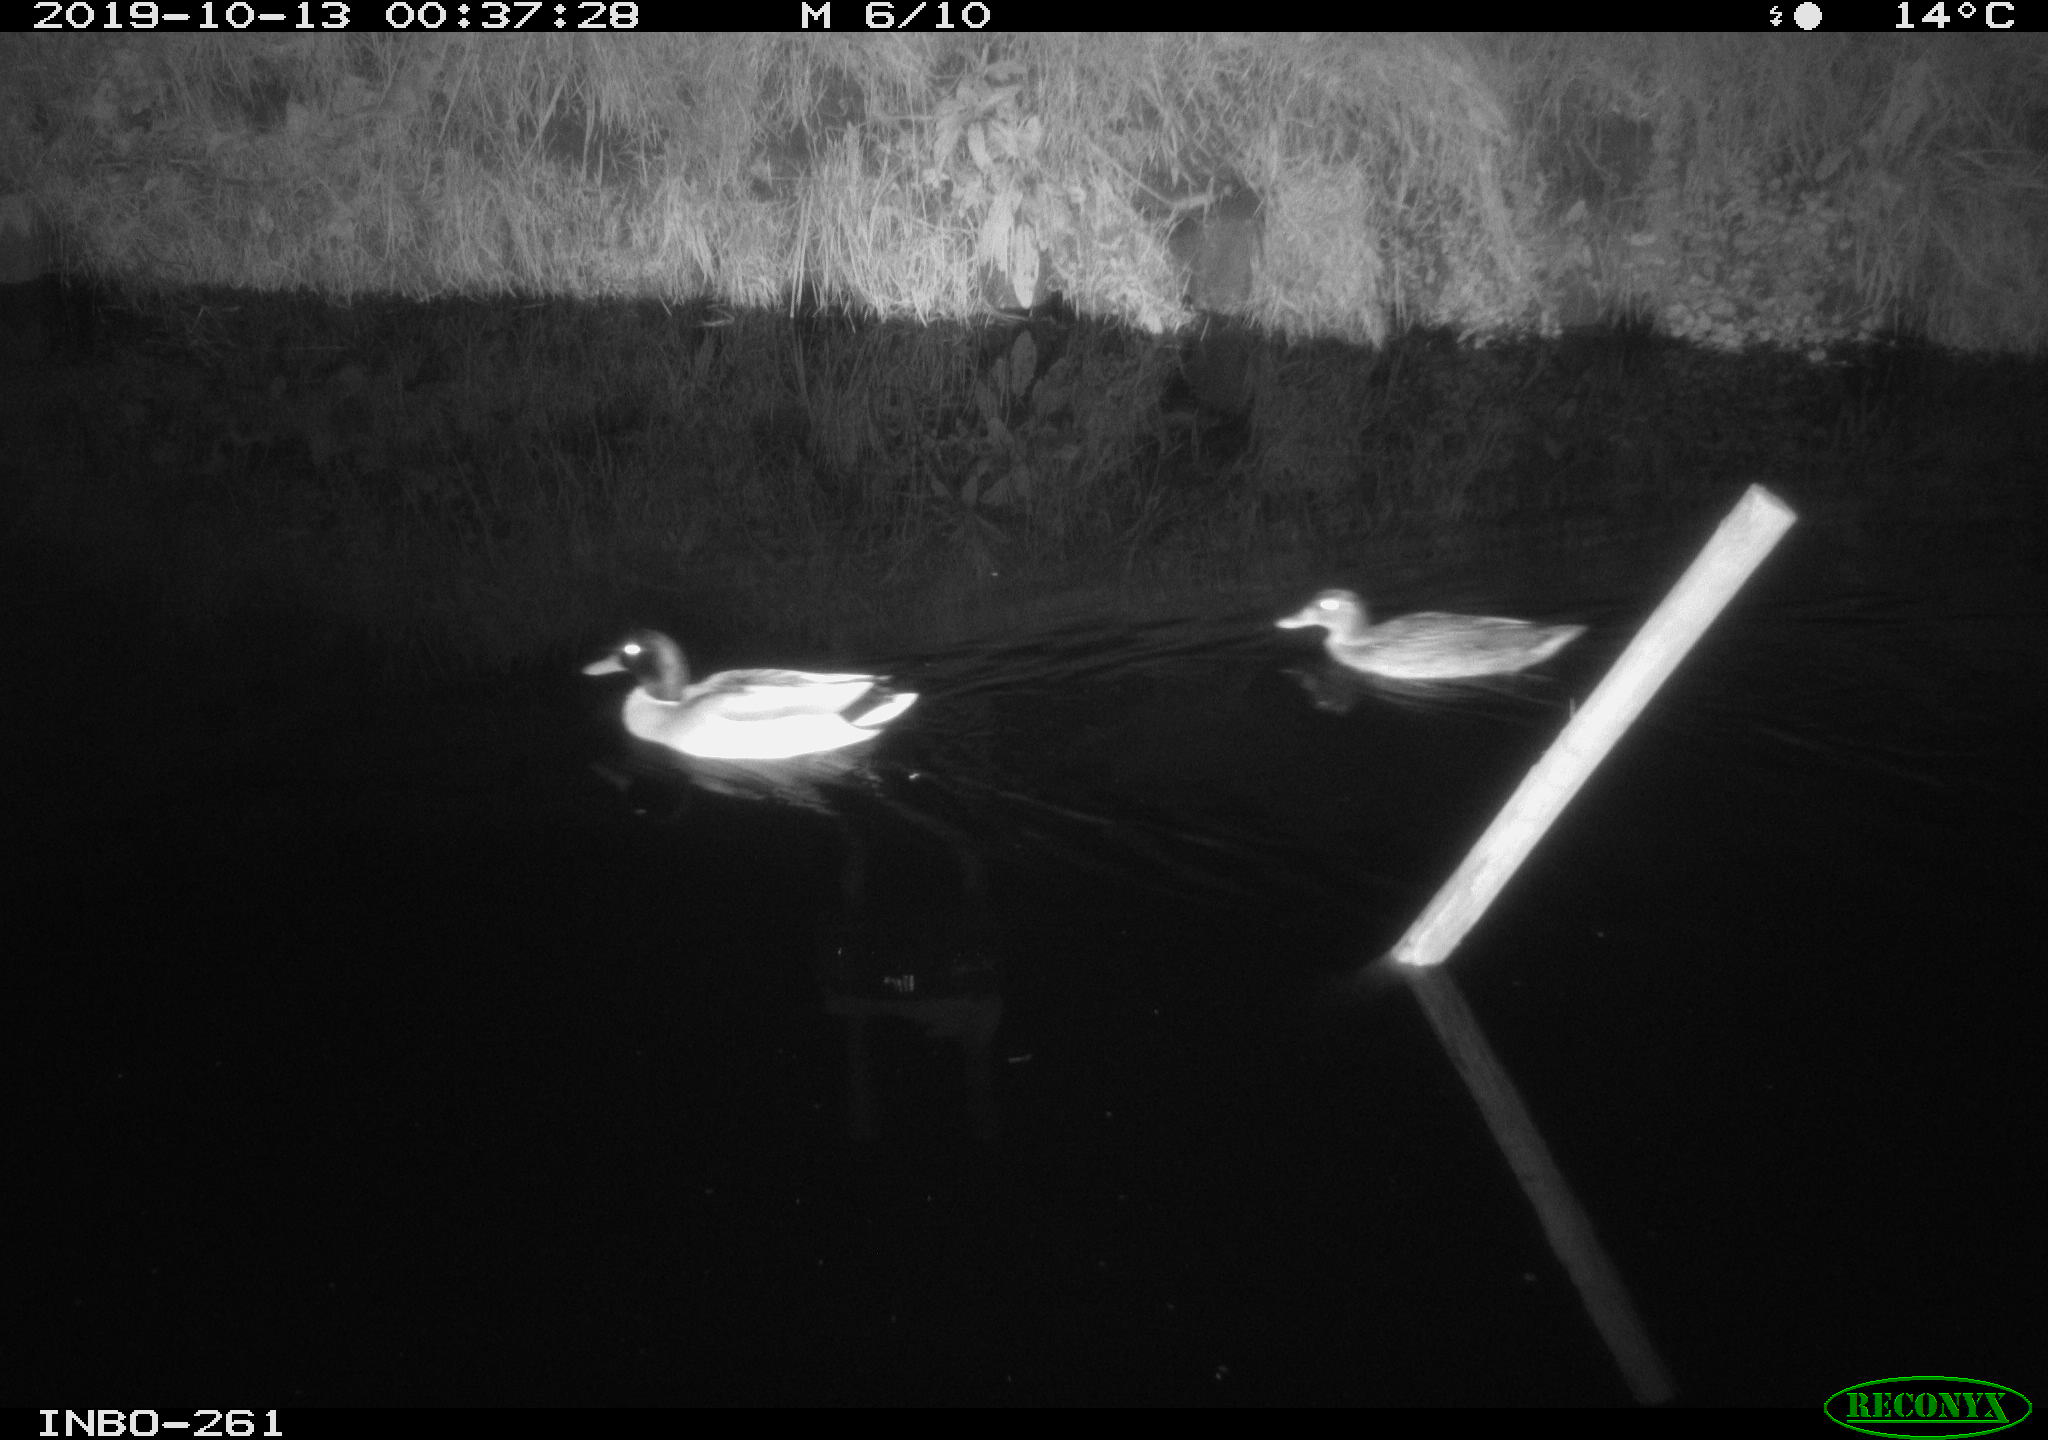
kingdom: Animalia
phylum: Chordata
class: Aves
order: Anseriformes
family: Anatidae
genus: Anas
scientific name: Anas platyrhynchos
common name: Mallard
